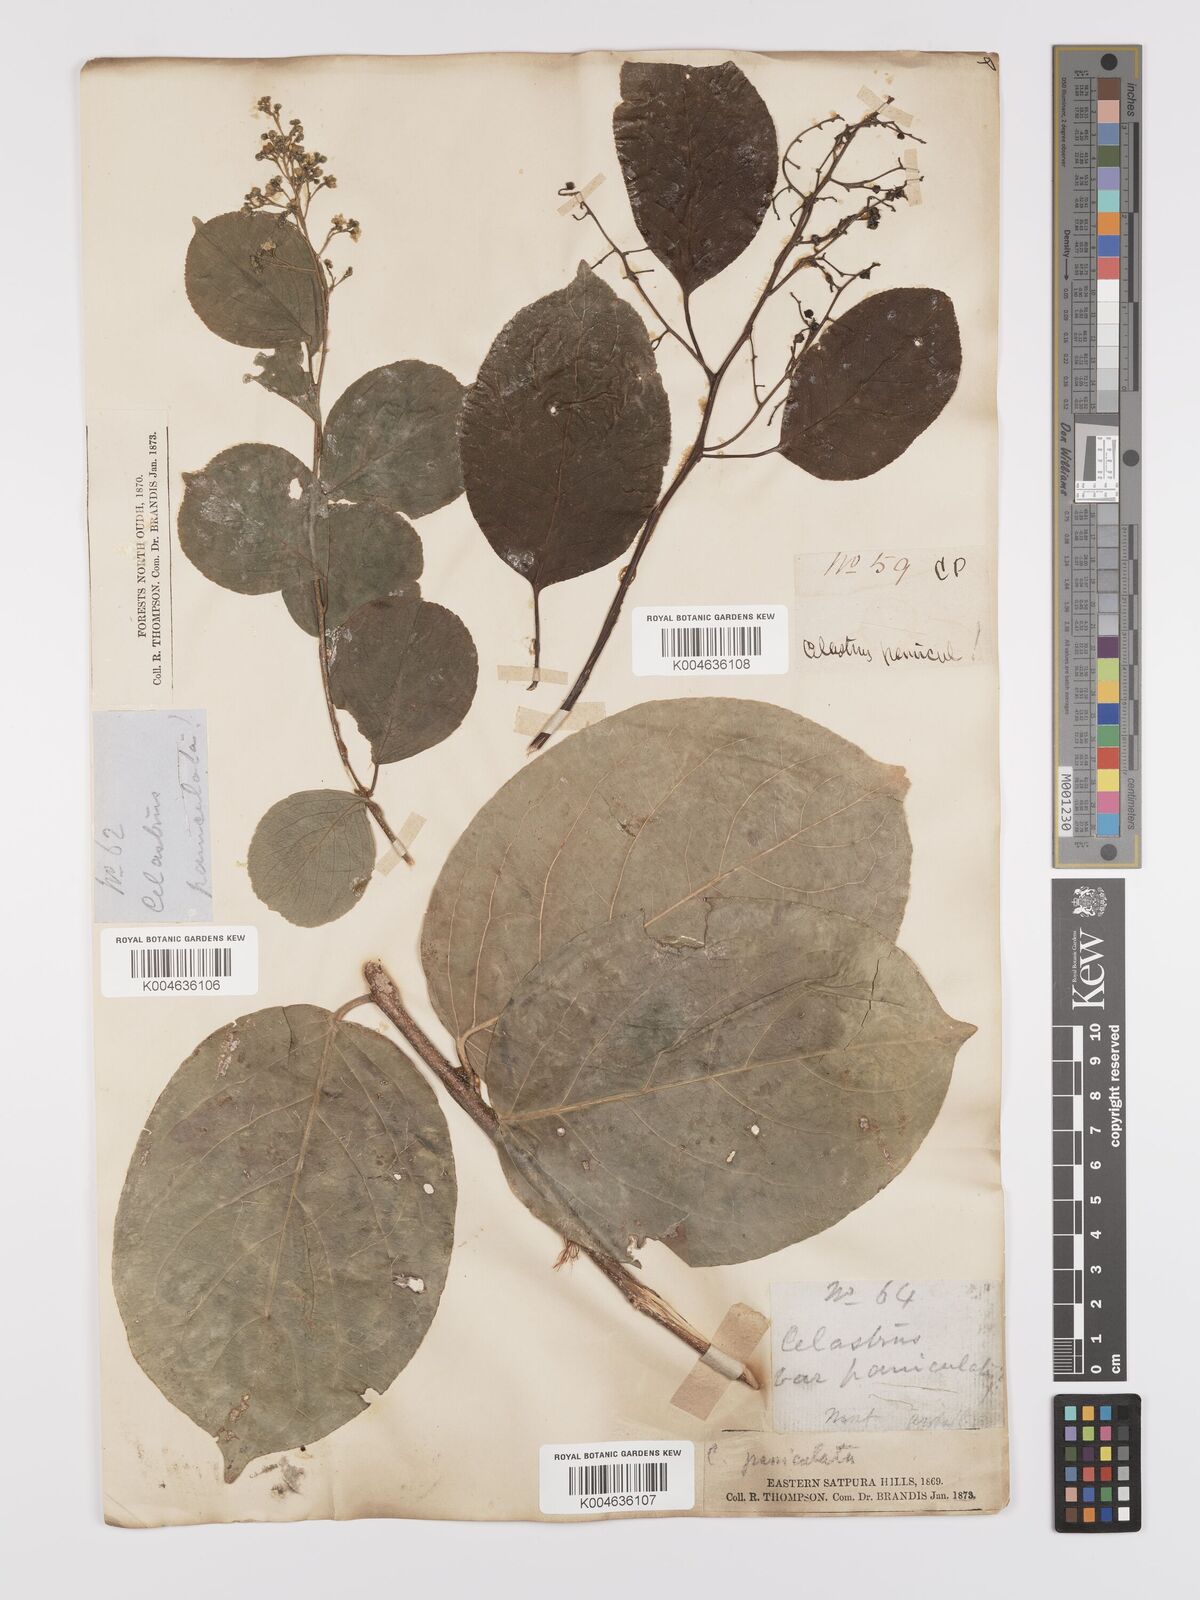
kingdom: Plantae
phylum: Tracheophyta
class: Magnoliopsida
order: Celastrales
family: Celastraceae
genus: Celastrus
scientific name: Celastrus paniculatus
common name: Oriental bittersweet; staff vine
